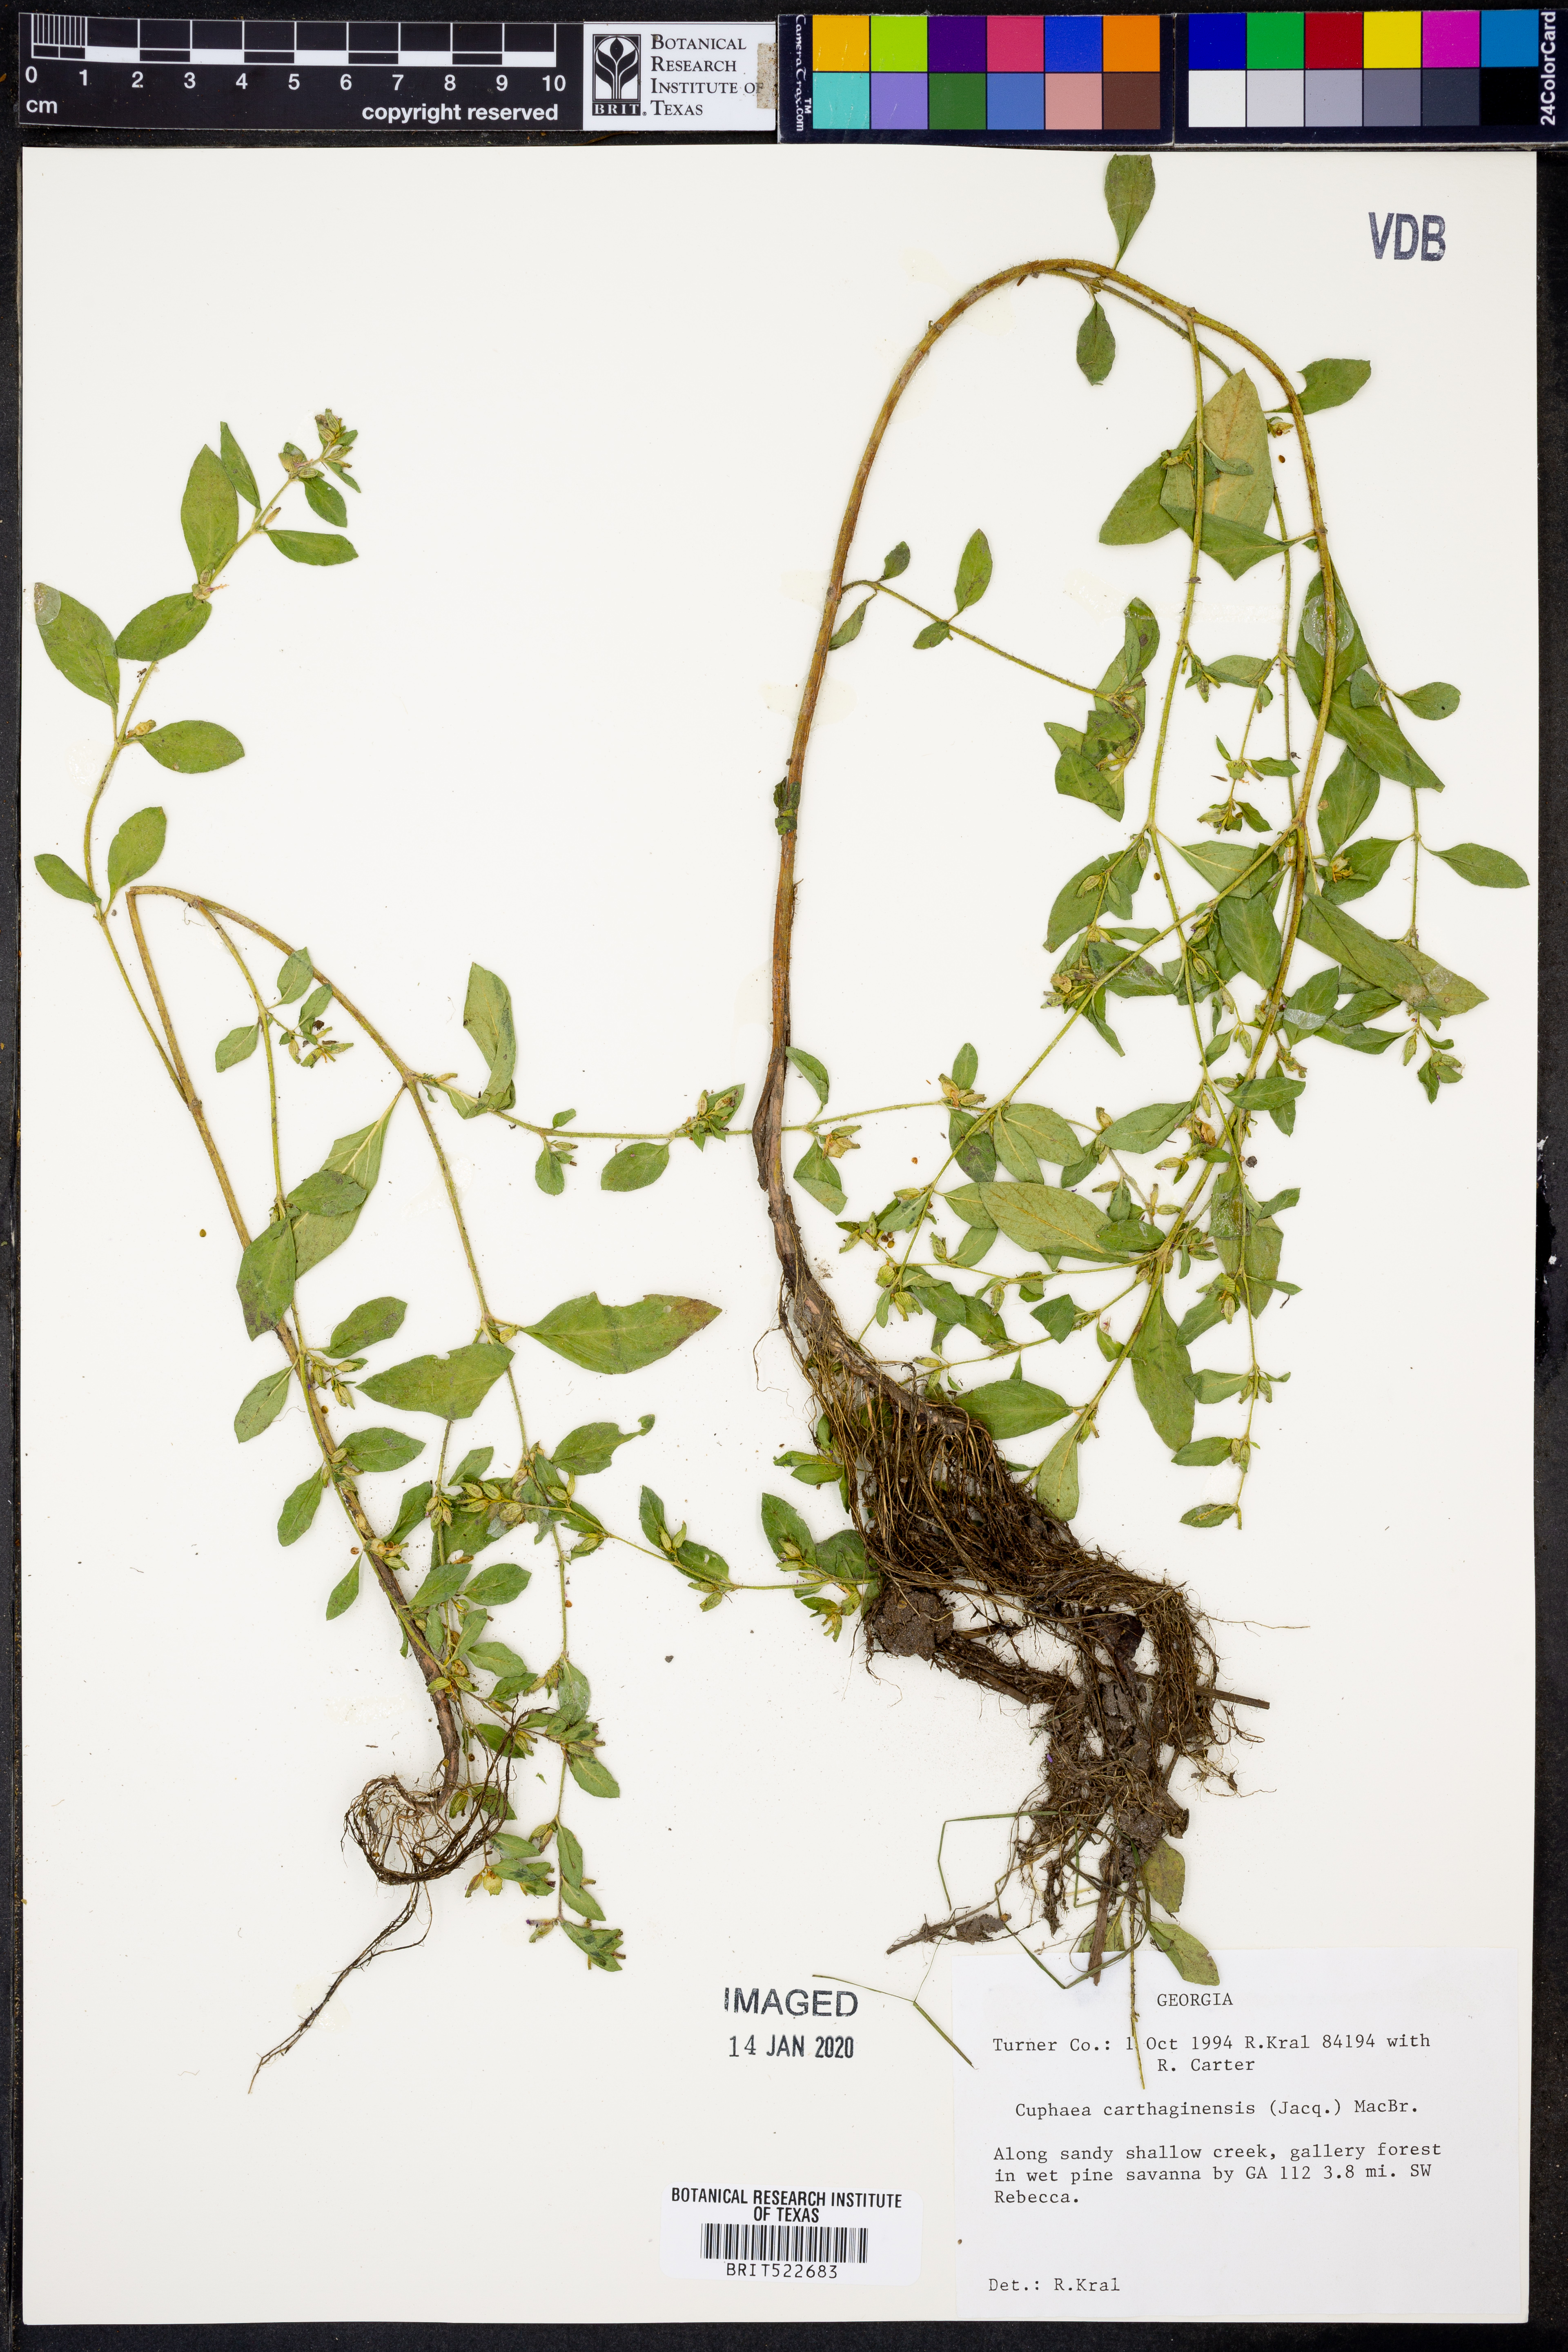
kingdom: Plantae
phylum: Tracheophyta
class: Magnoliopsida
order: Myrtales
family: Lythraceae
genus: Cuphea
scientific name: Cuphea carthagenensis
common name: Colombian waxweed
